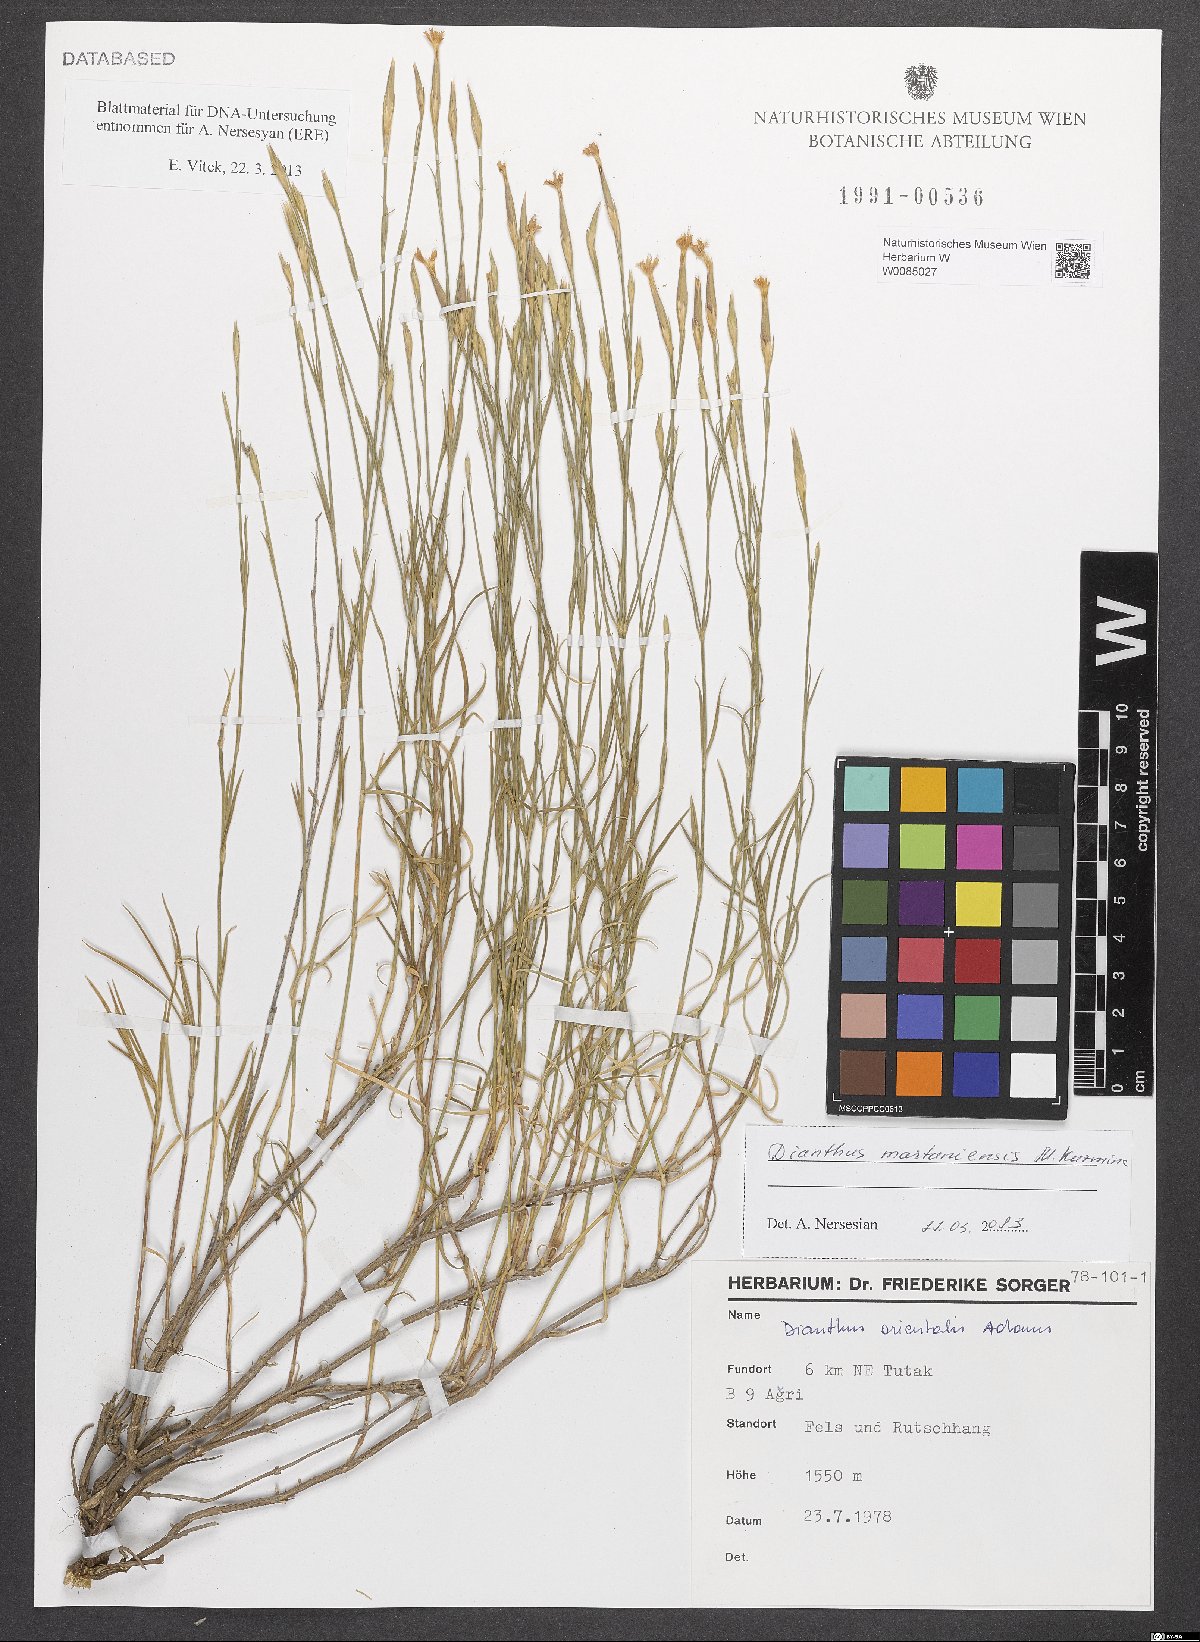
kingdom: Plantae
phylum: Tracheophyta
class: Magnoliopsida
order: Caryophyllales
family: Caryophyllaceae
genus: Dianthus
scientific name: Dianthus martuniensis
